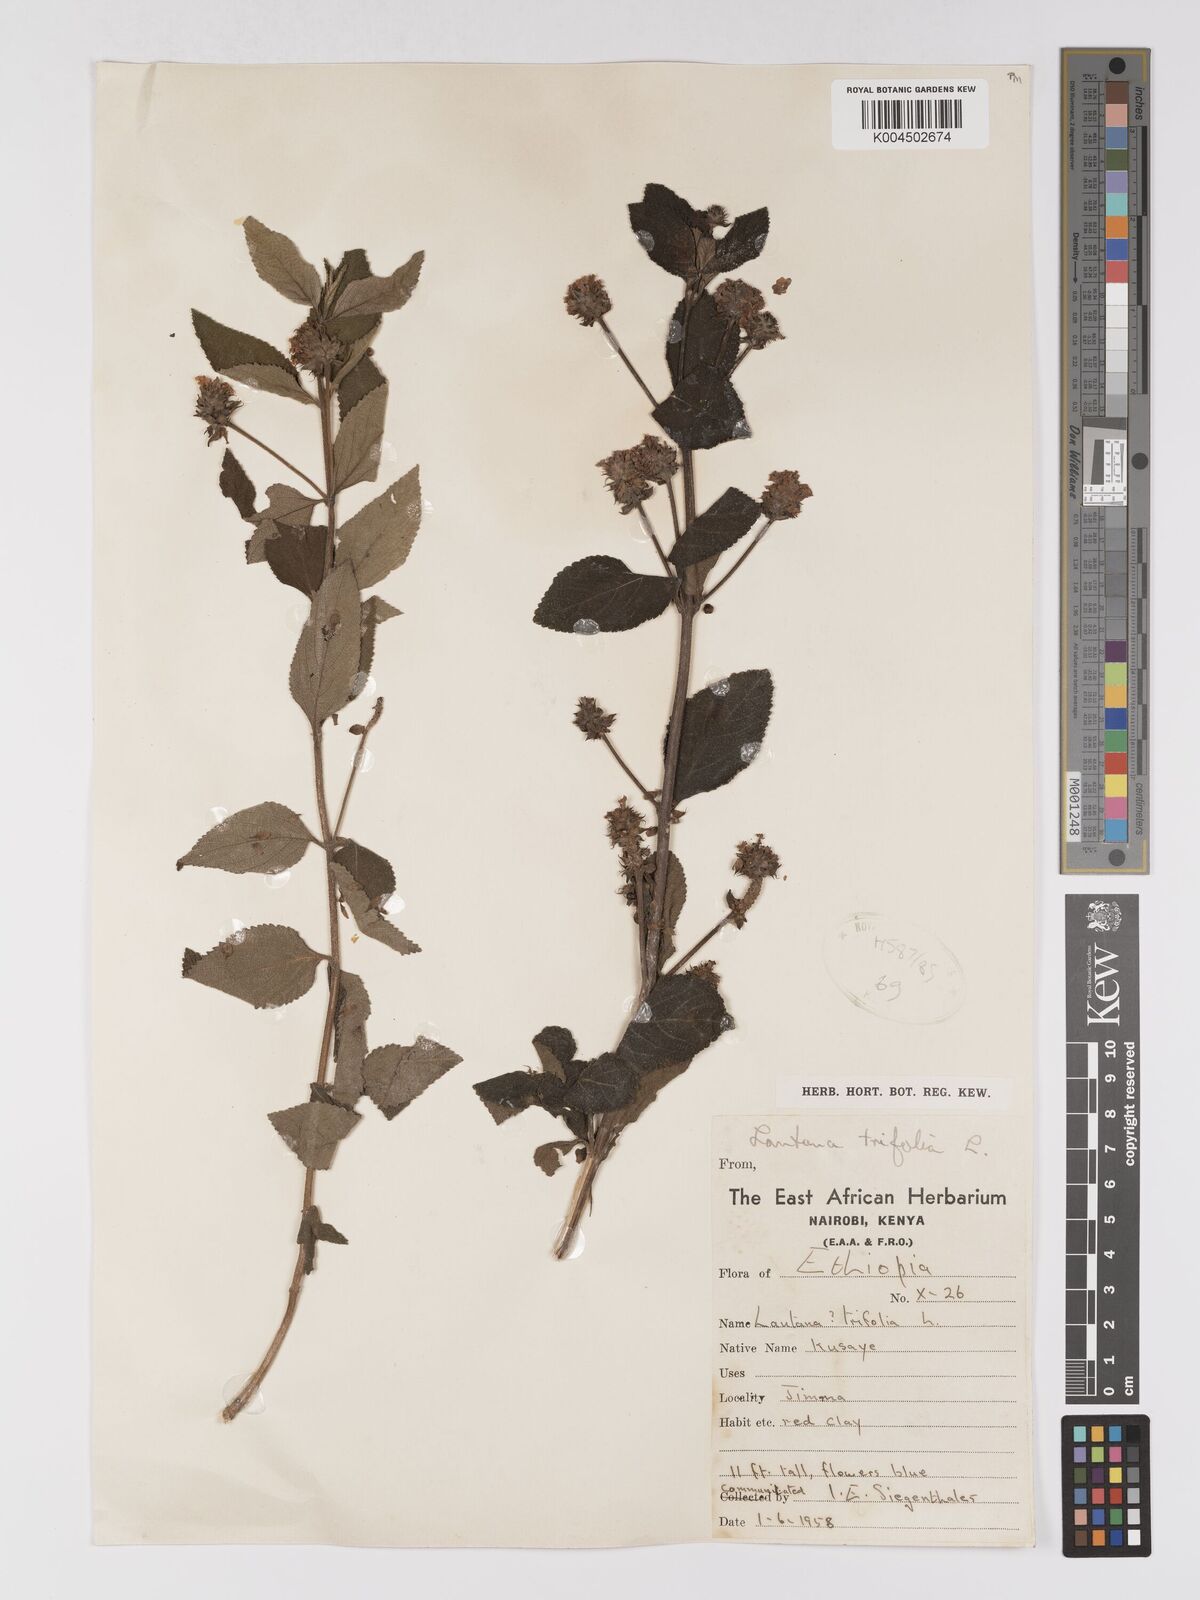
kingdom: Plantae
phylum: Tracheophyta
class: Magnoliopsida
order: Lamiales
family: Verbenaceae
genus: Lantana
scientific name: Lantana trifolia
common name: Sweet-sage
